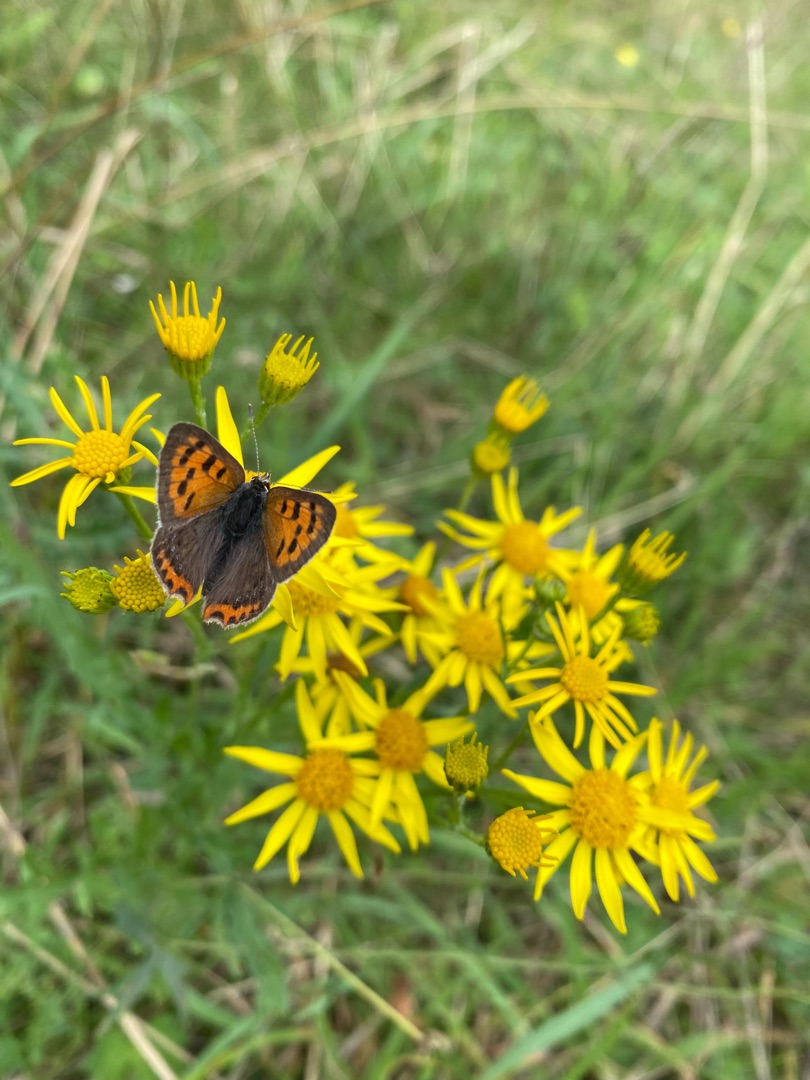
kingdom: Animalia
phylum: Arthropoda
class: Insecta
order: Lepidoptera
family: Lycaenidae
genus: Lycaena
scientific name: Lycaena phlaeas
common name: Lille ildfugl
